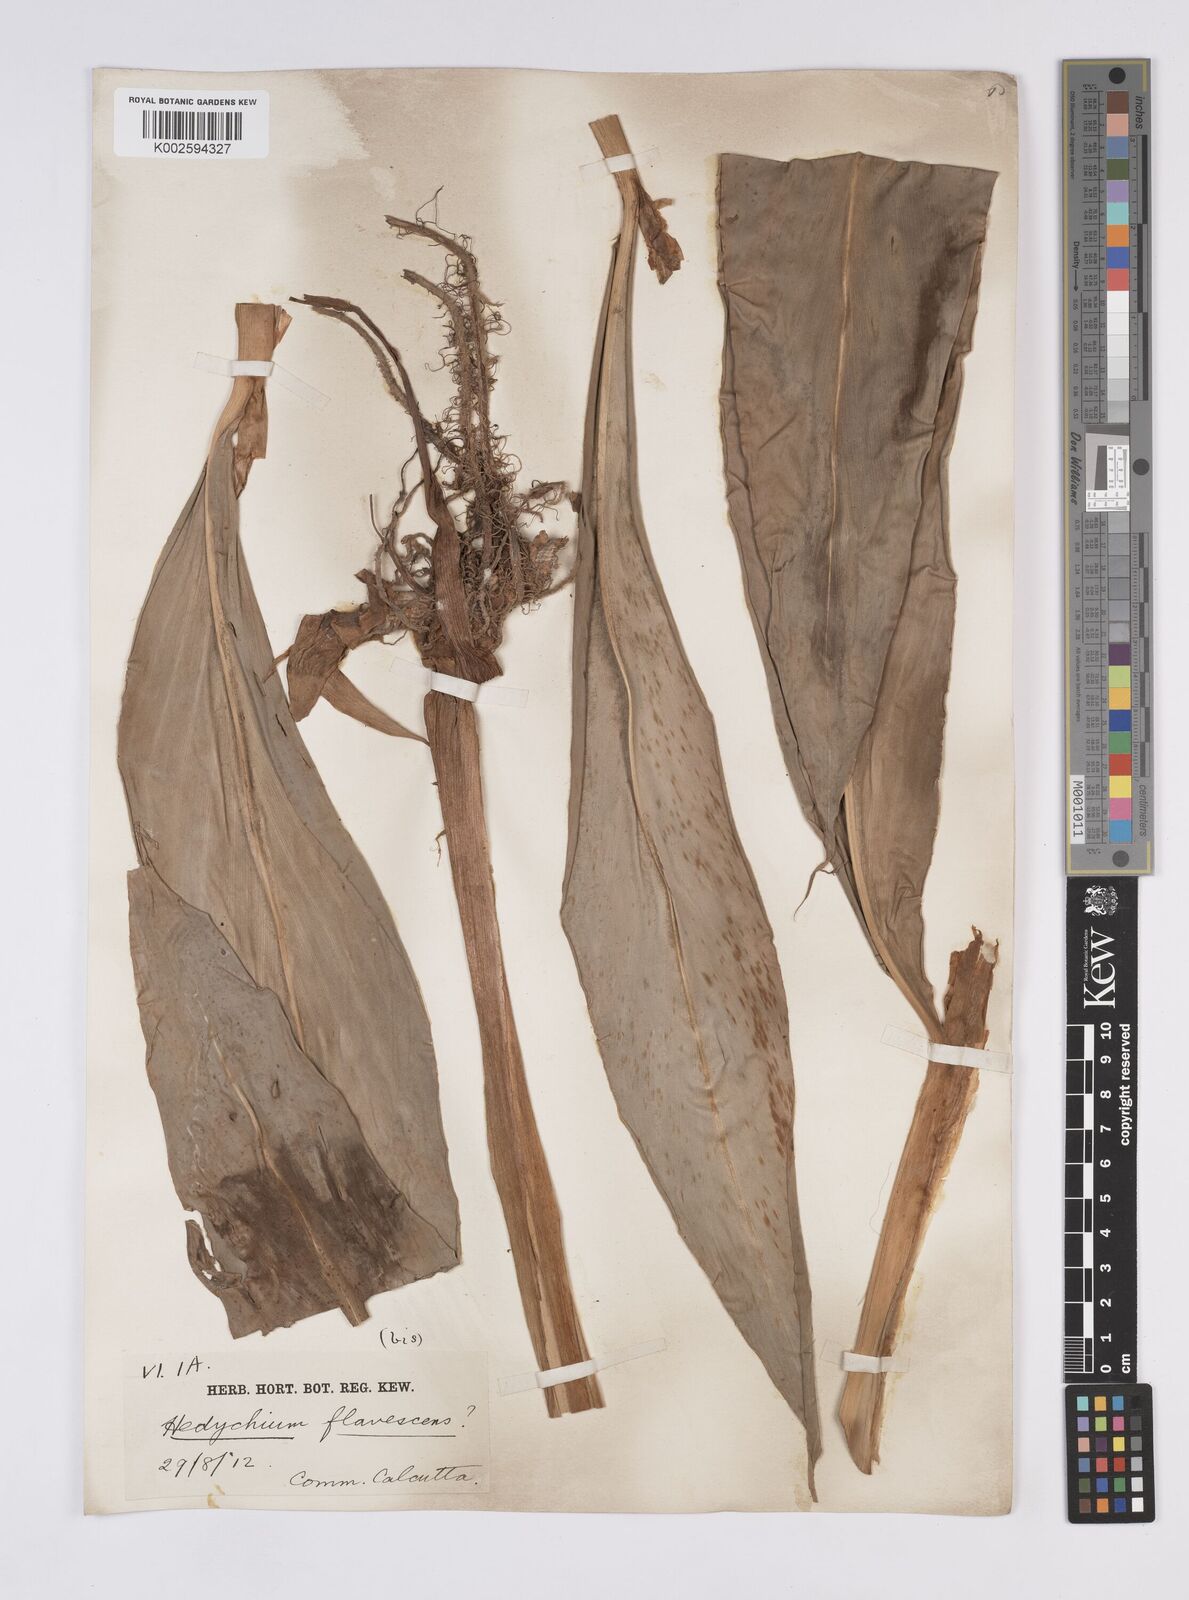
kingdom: Plantae
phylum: Tracheophyta
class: Liliopsida
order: Zingiberales
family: Zingiberaceae
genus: Hedychium
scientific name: Hedychium flavescens
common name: Yellow ginger
